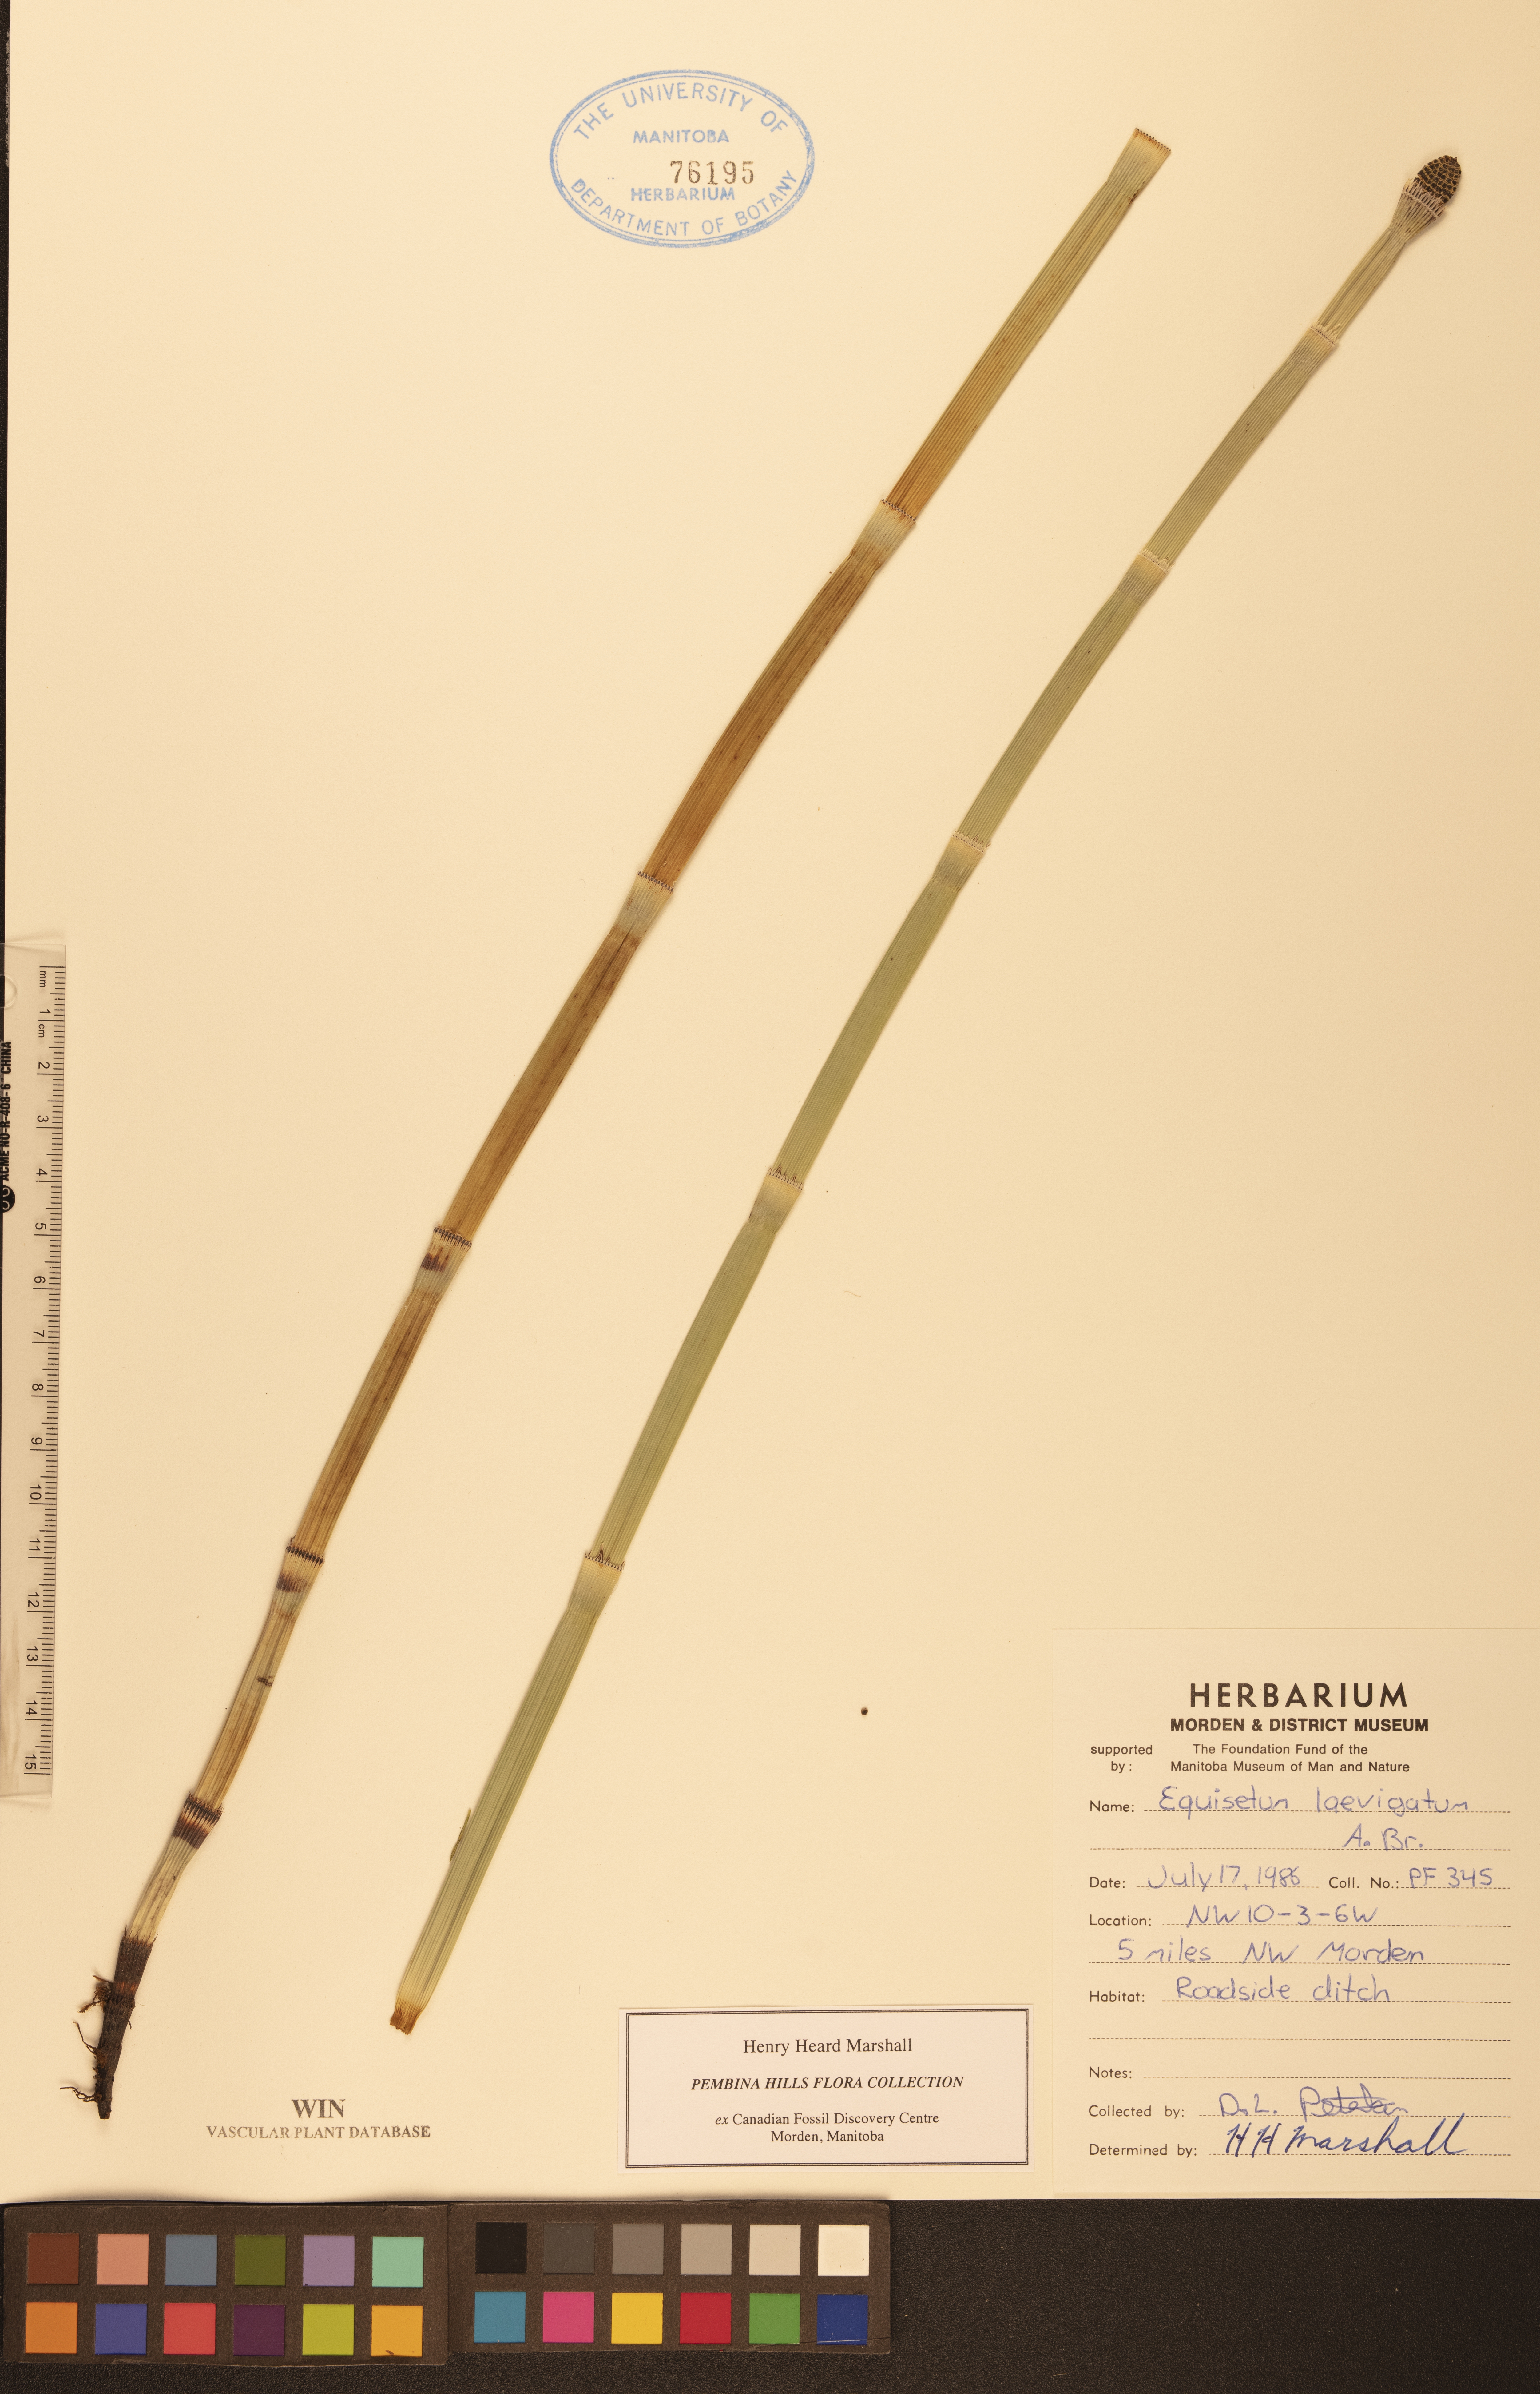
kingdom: Plantae
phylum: Tracheophyta
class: Polypodiopsida
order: Equisetales
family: Equisetaceae
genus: Equisetum
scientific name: Equisetum laevigatum
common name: Smooth scouring-rush
